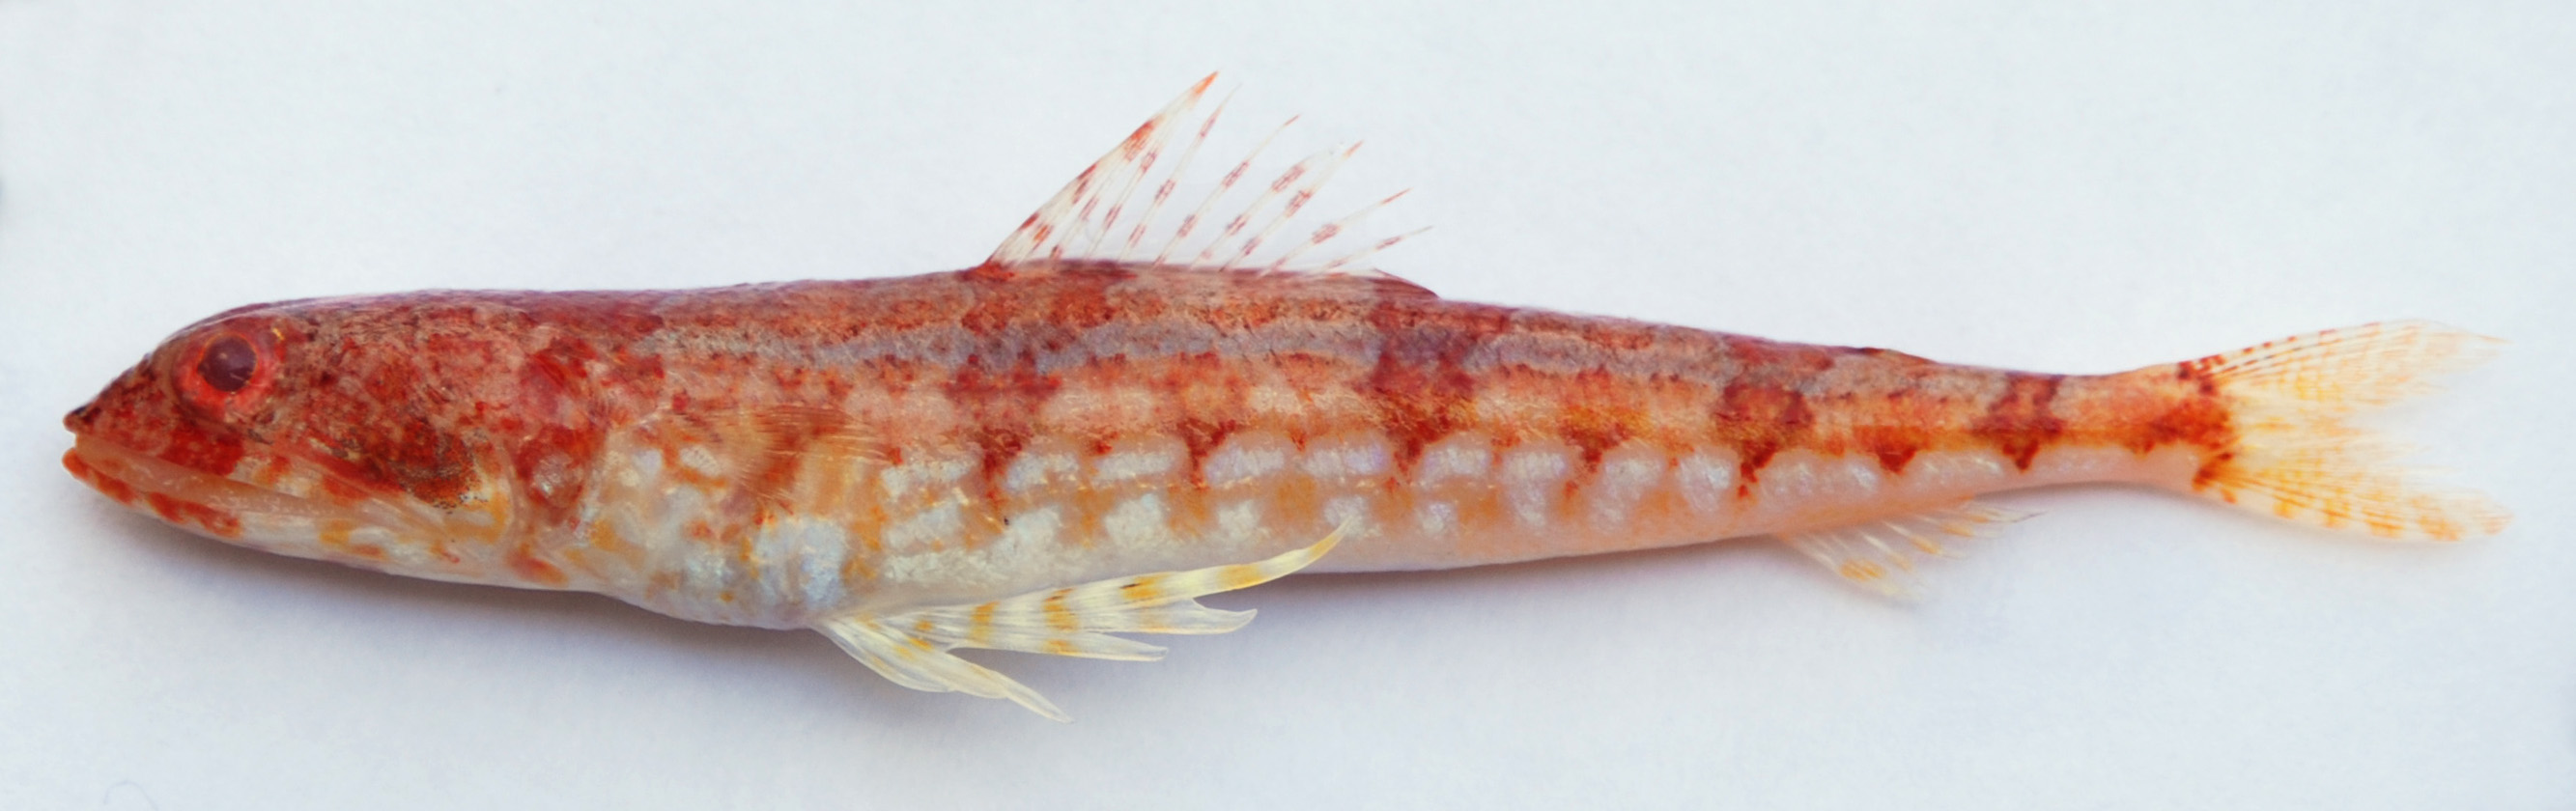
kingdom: Animalia
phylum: Chordata
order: Aulopiformes
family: Synodontidae
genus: Synodus
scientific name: Synodus binotatus
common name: Twospot lizardfish
